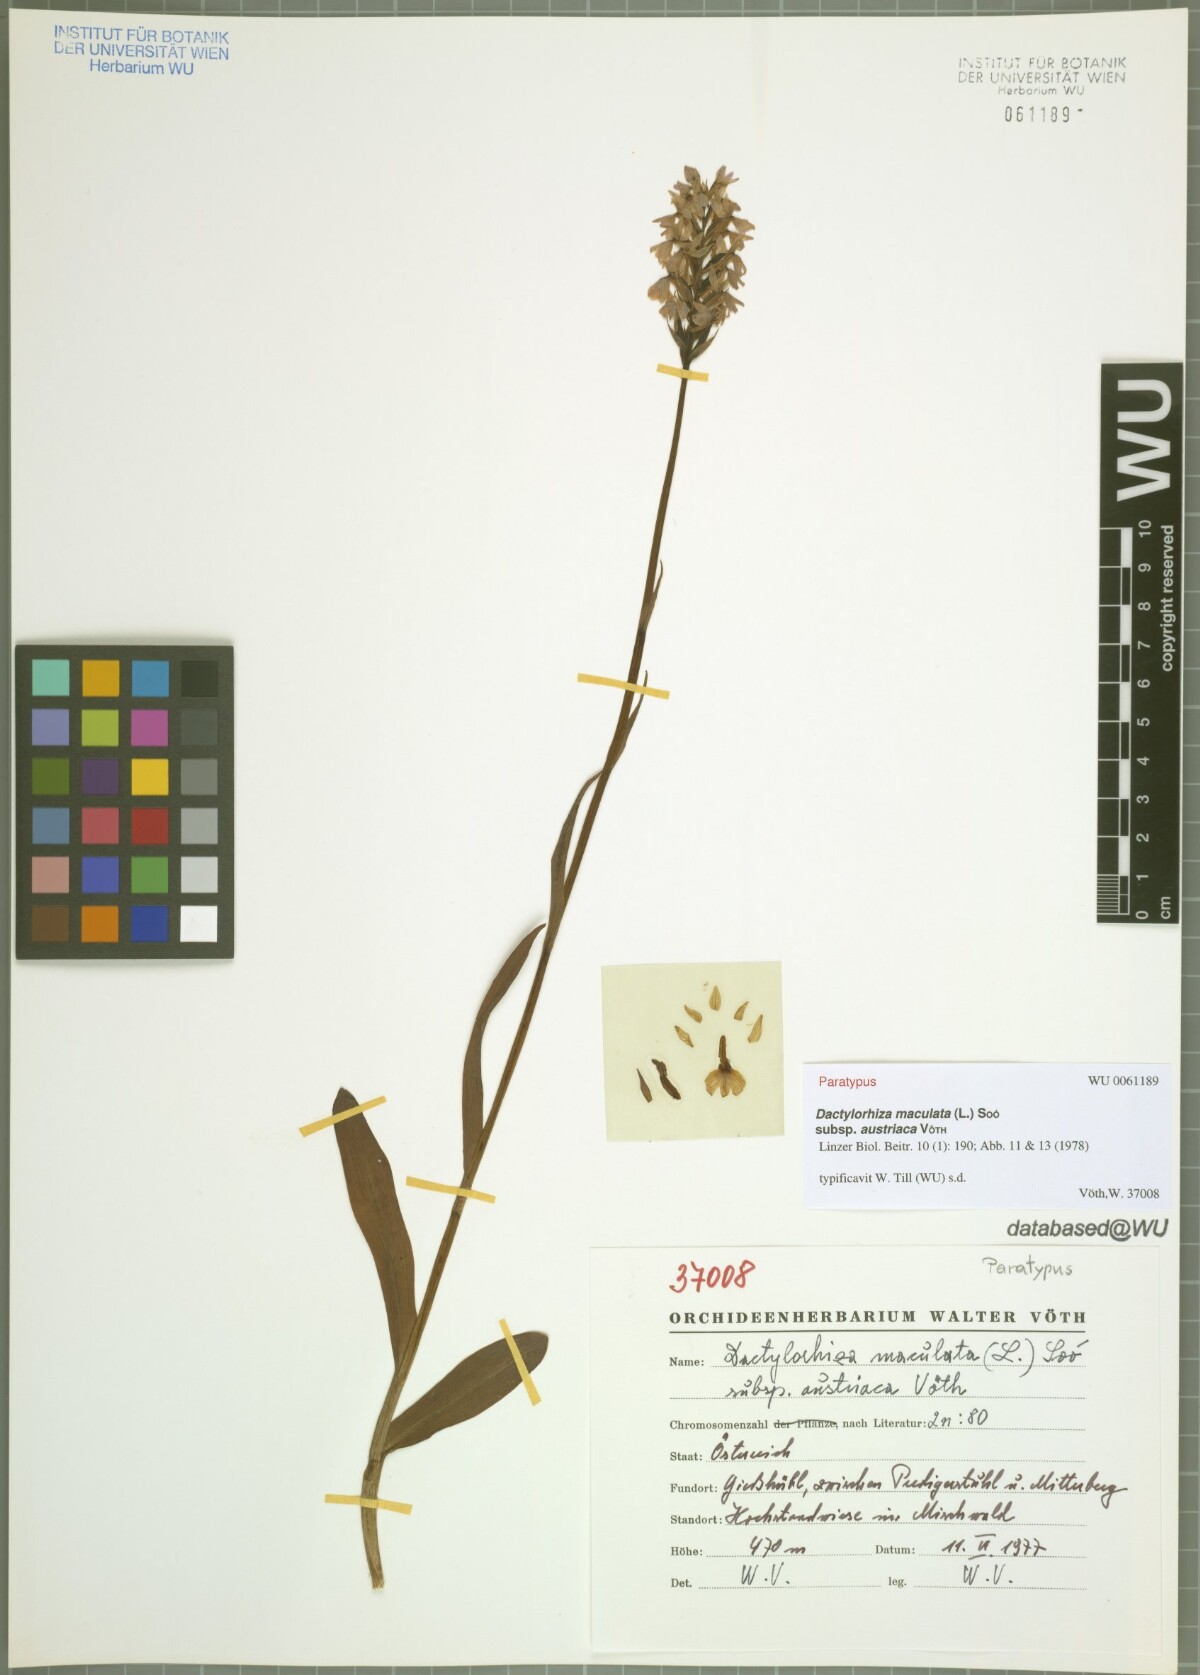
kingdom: Plantae
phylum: Tracheophyta
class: Liliopsida
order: Asparagales
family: Orchidaceae
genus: Dactylorhiza
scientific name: Dactylorhiza maculata
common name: Heath spotted-orchid
